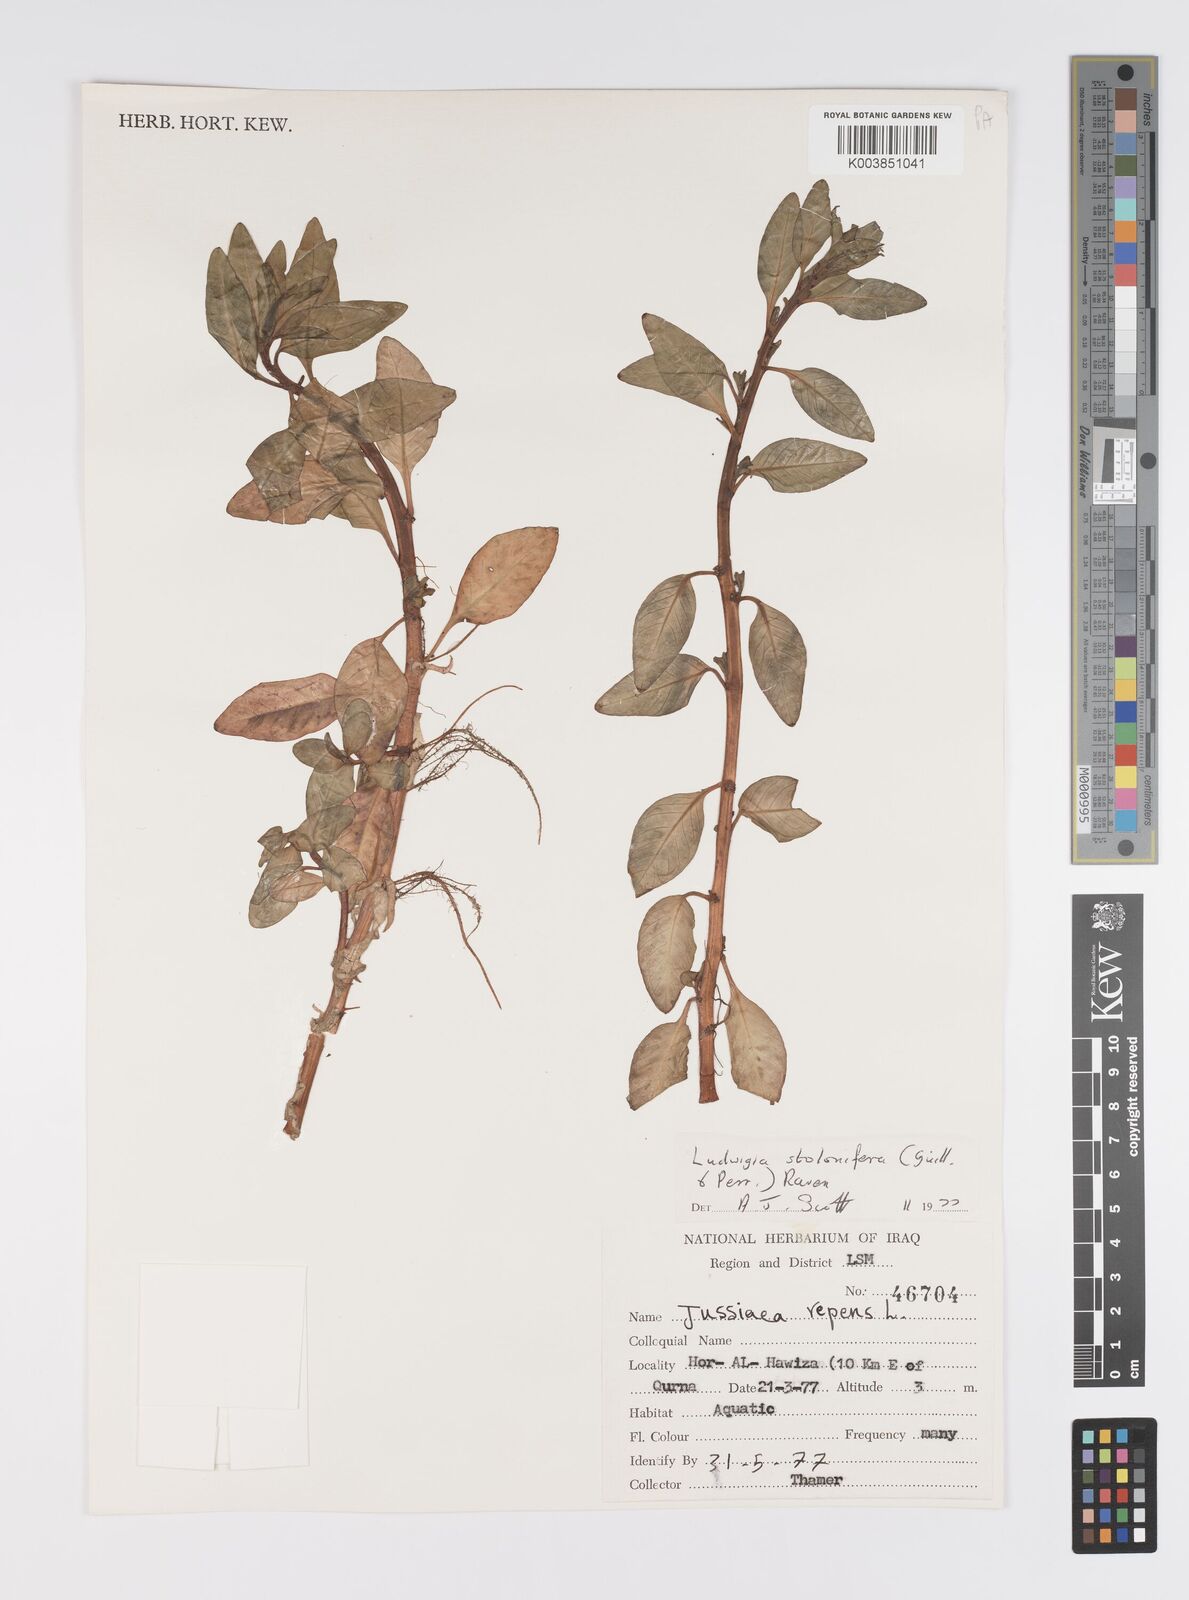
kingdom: Plantae
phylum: Tracheophyta
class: Magnoliopsida
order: Myrtales
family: Onagraceae
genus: Ludwigia
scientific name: Ludwigia adscendens
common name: Creeping water primrose
